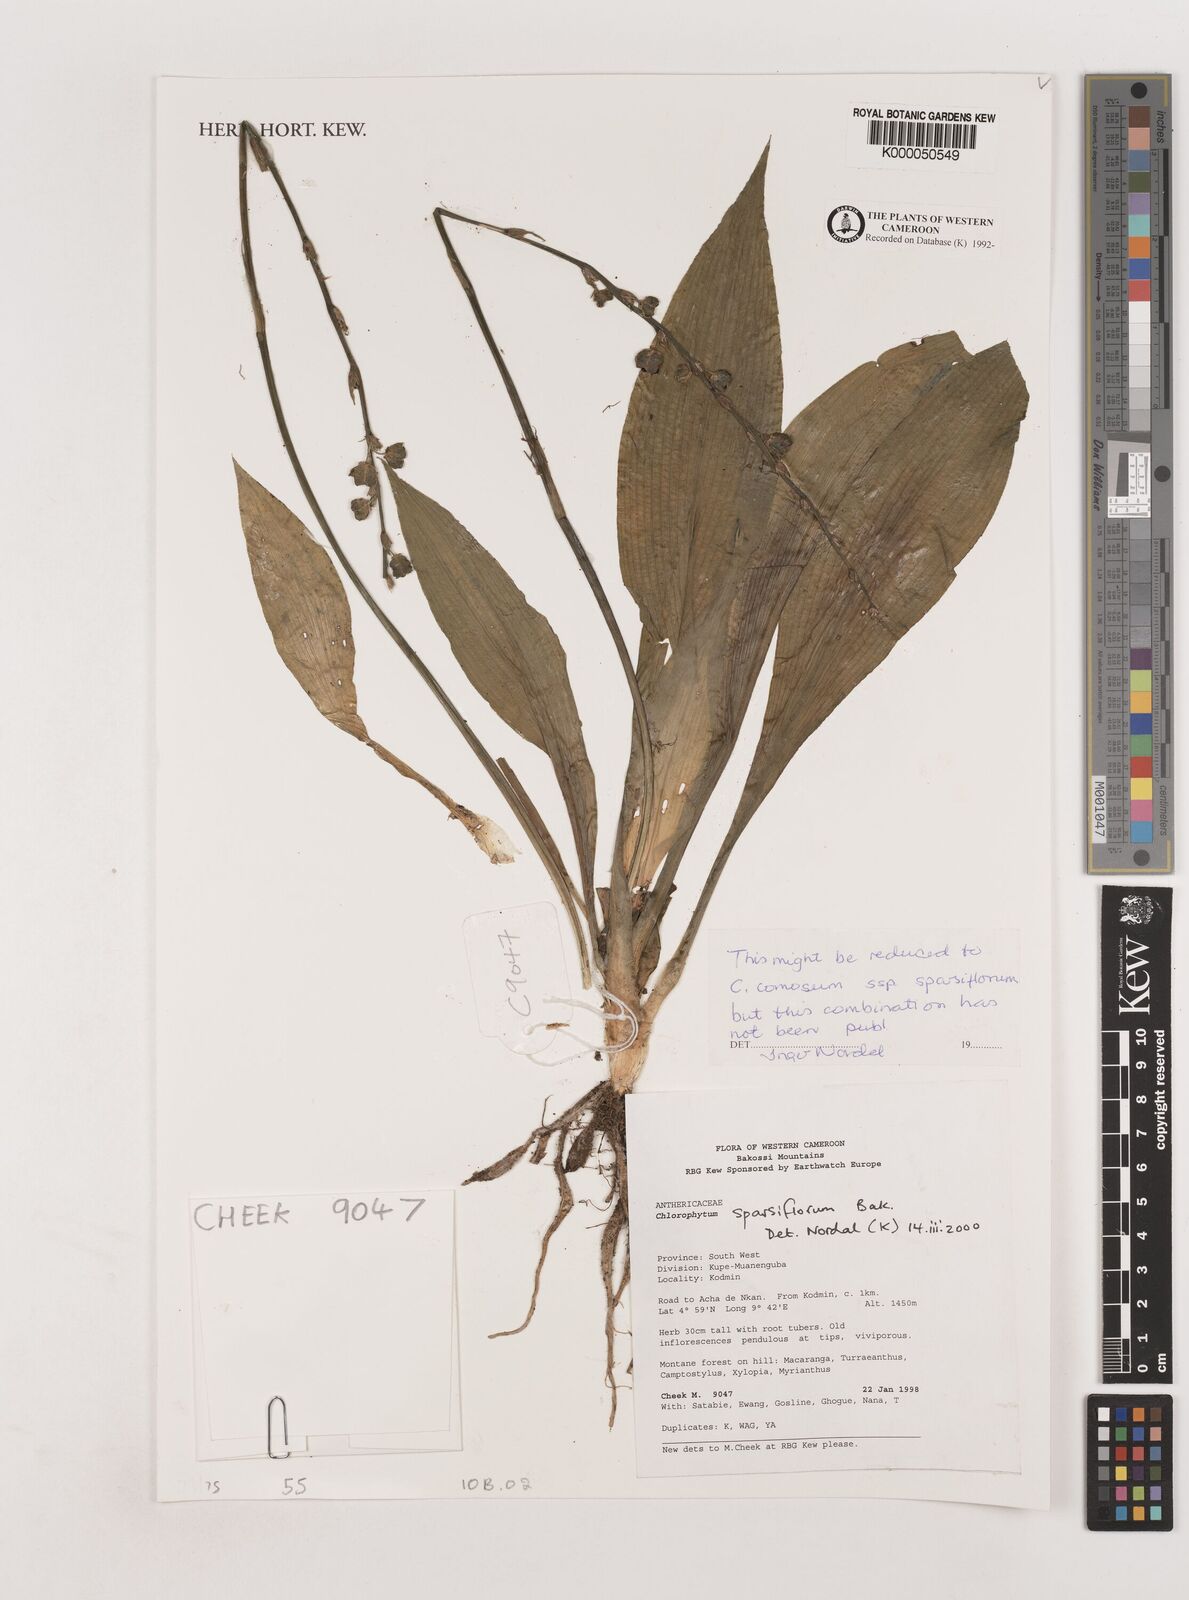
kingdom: Plantae
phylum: Tracheophyta
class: Liliopsida
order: Asparagales
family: Asparagaceae
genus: Chlorophytum
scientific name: Chlorophytum sparsiflorum
